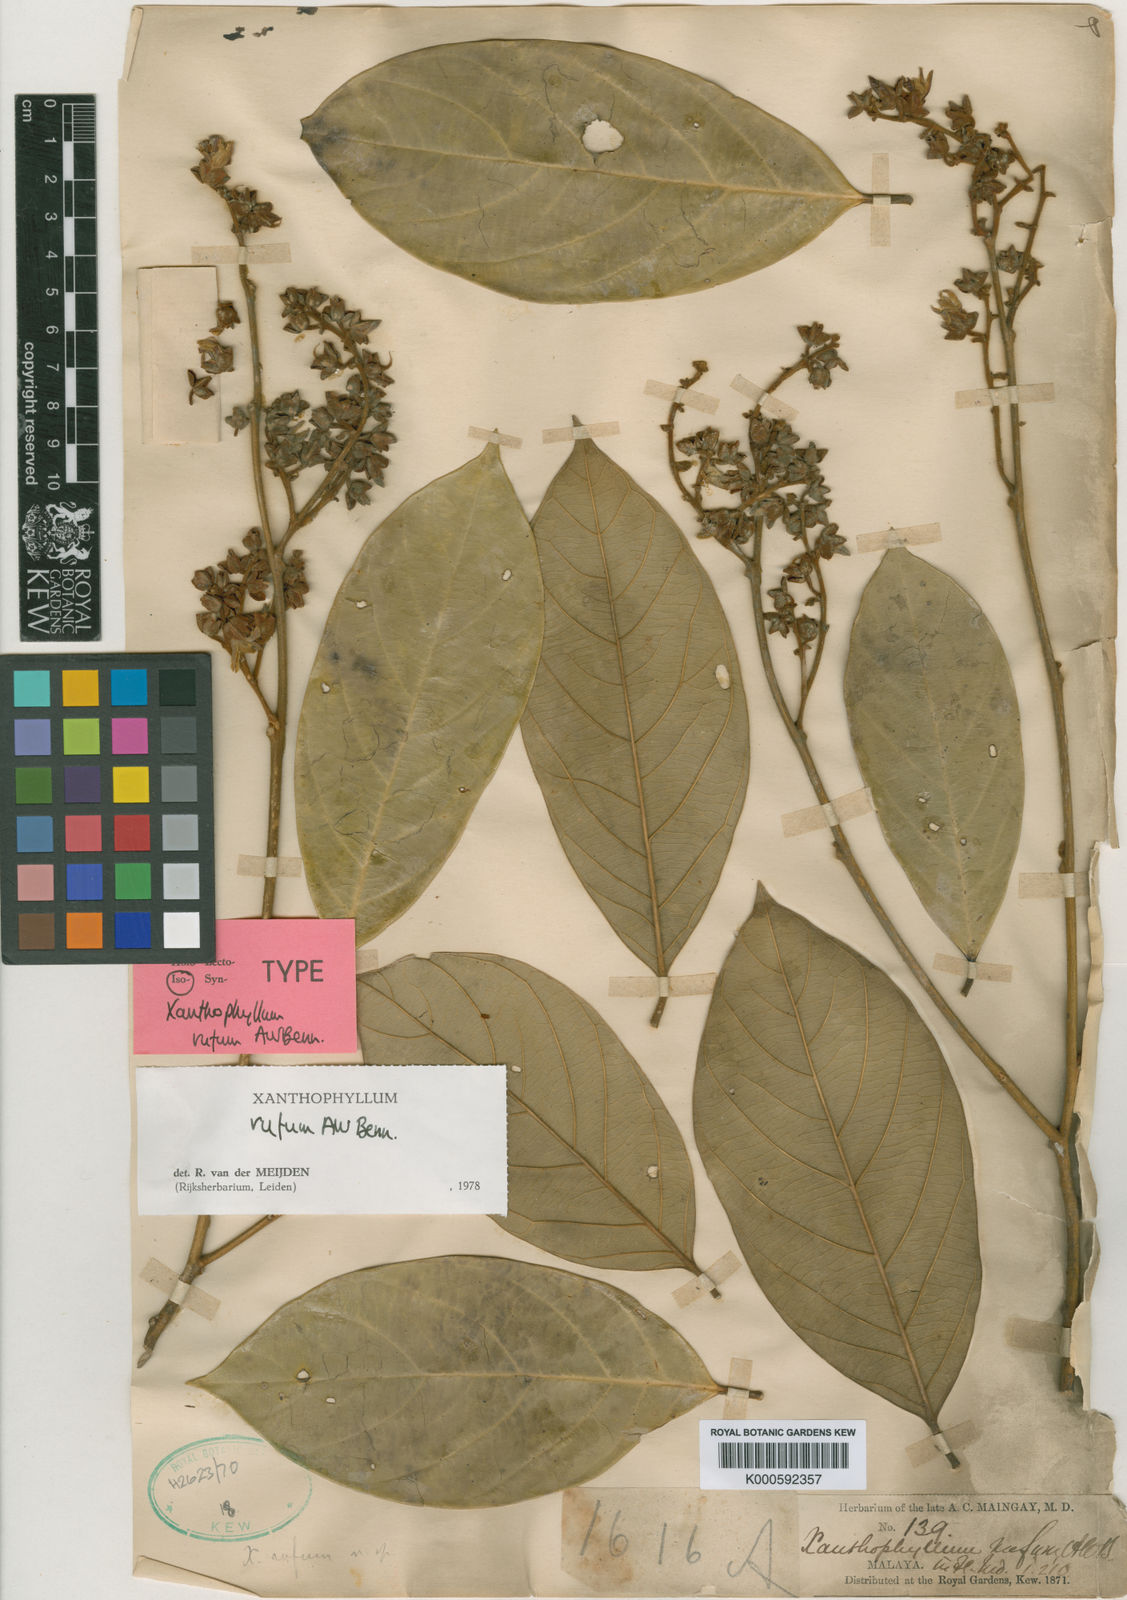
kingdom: Plantae
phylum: Tracheophyta
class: Magnoliopsida
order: Fabales
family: Polygalaceae
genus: Xanthophyllum
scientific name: Xanthophyllum rufum
